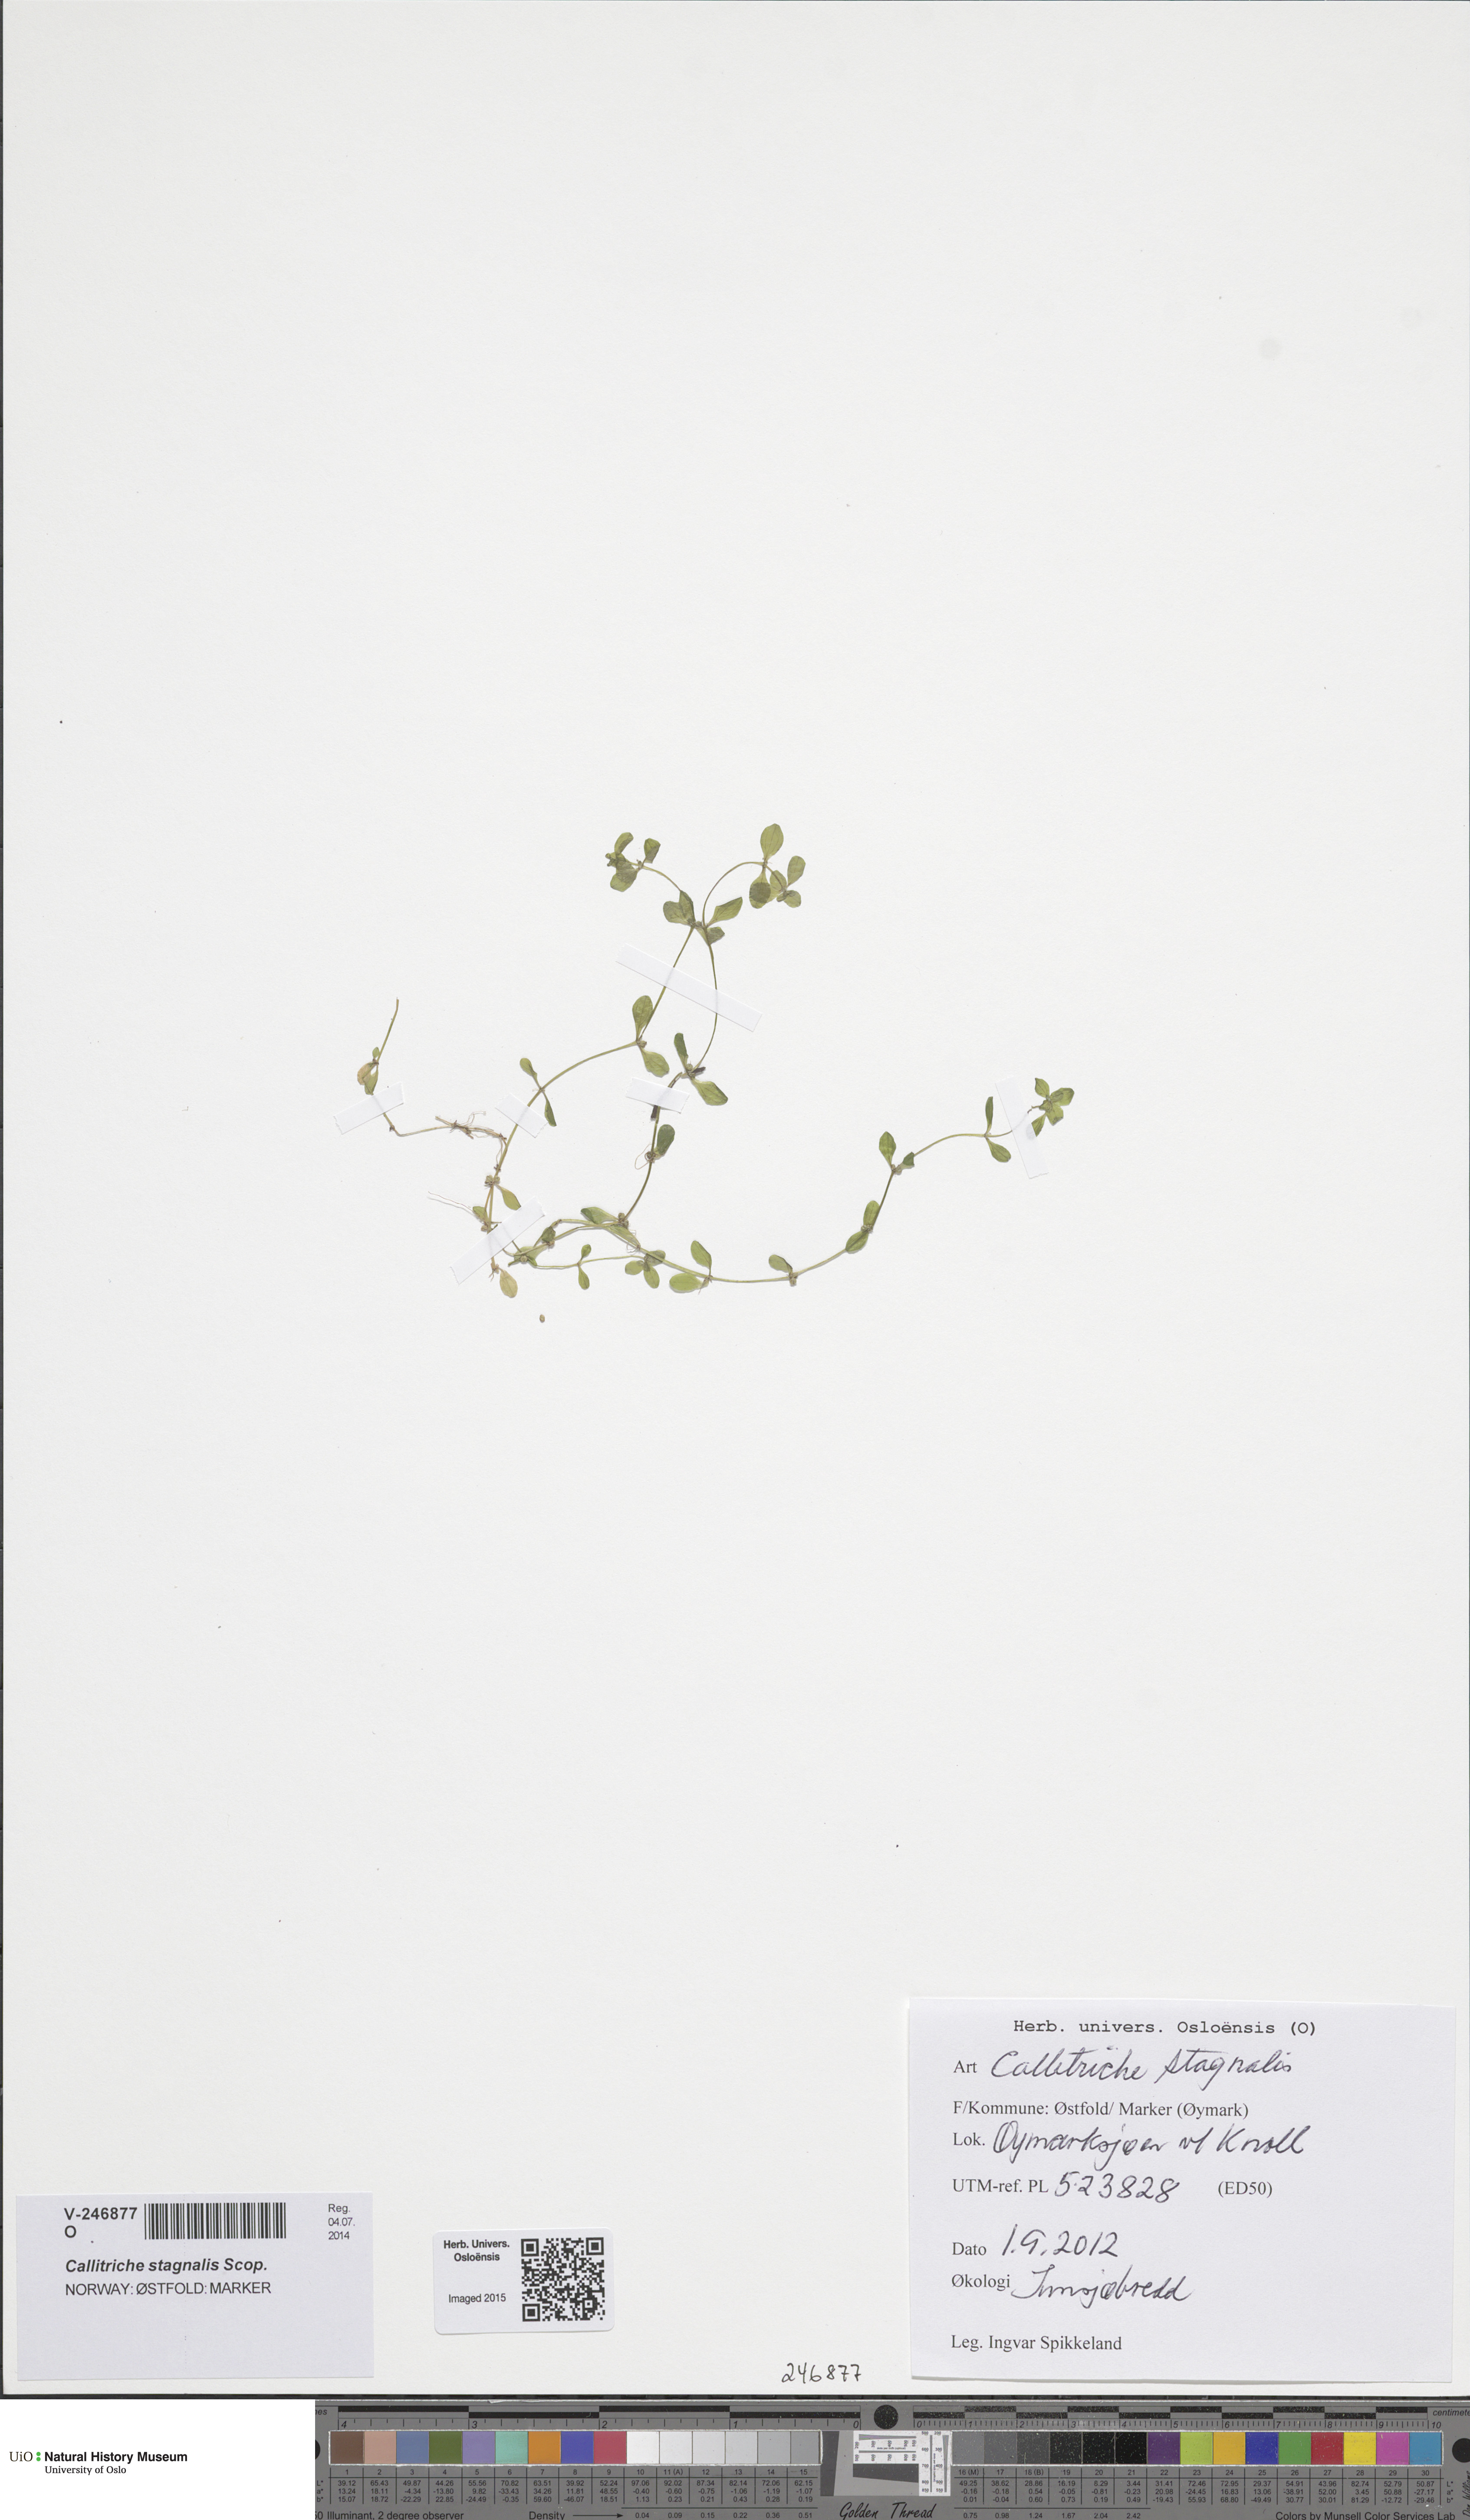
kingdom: Plantae
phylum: Tracheophyta
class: Magnoliopsida
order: Lamiales
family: Plantaginaceae
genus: Callitriche
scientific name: Callitriche stagnalis
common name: Common water-starwort
